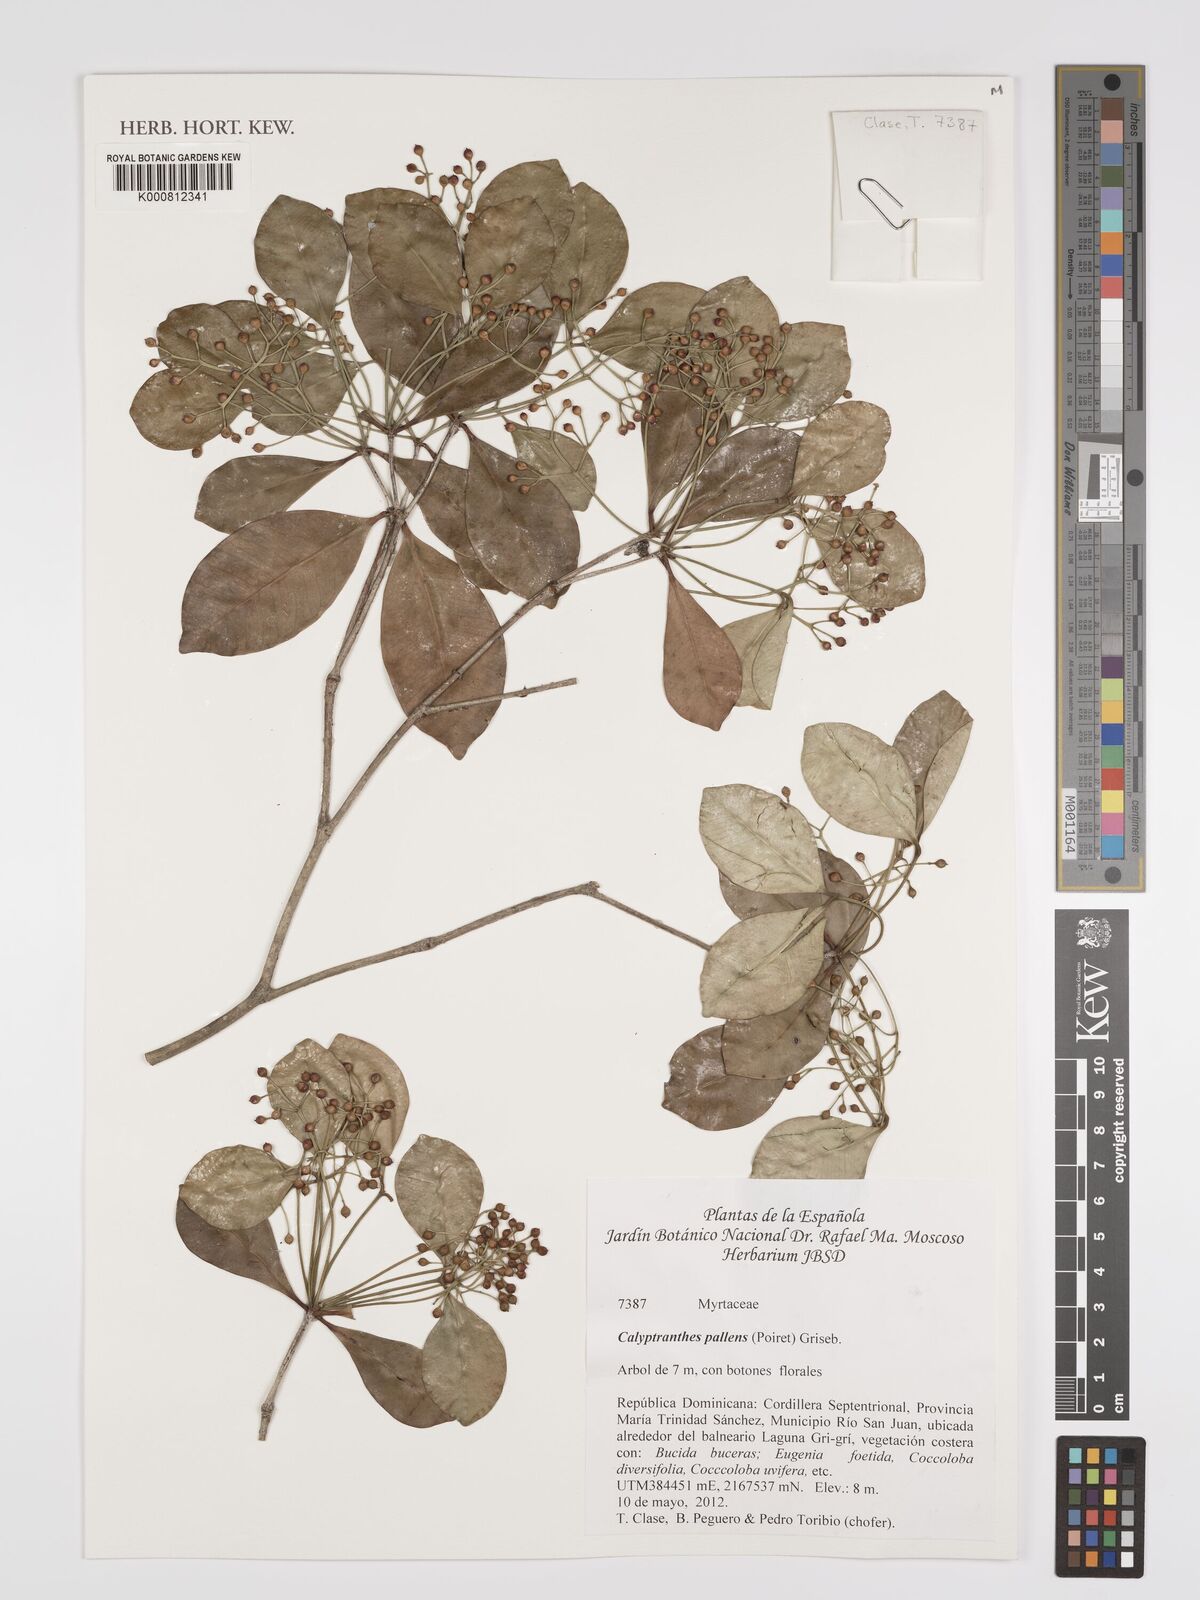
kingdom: Plantae
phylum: Tracheophyta
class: Magnoliopsida
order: Myrtales
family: Myrtaceae
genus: Myrcia
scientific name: Myrcia neopallens
